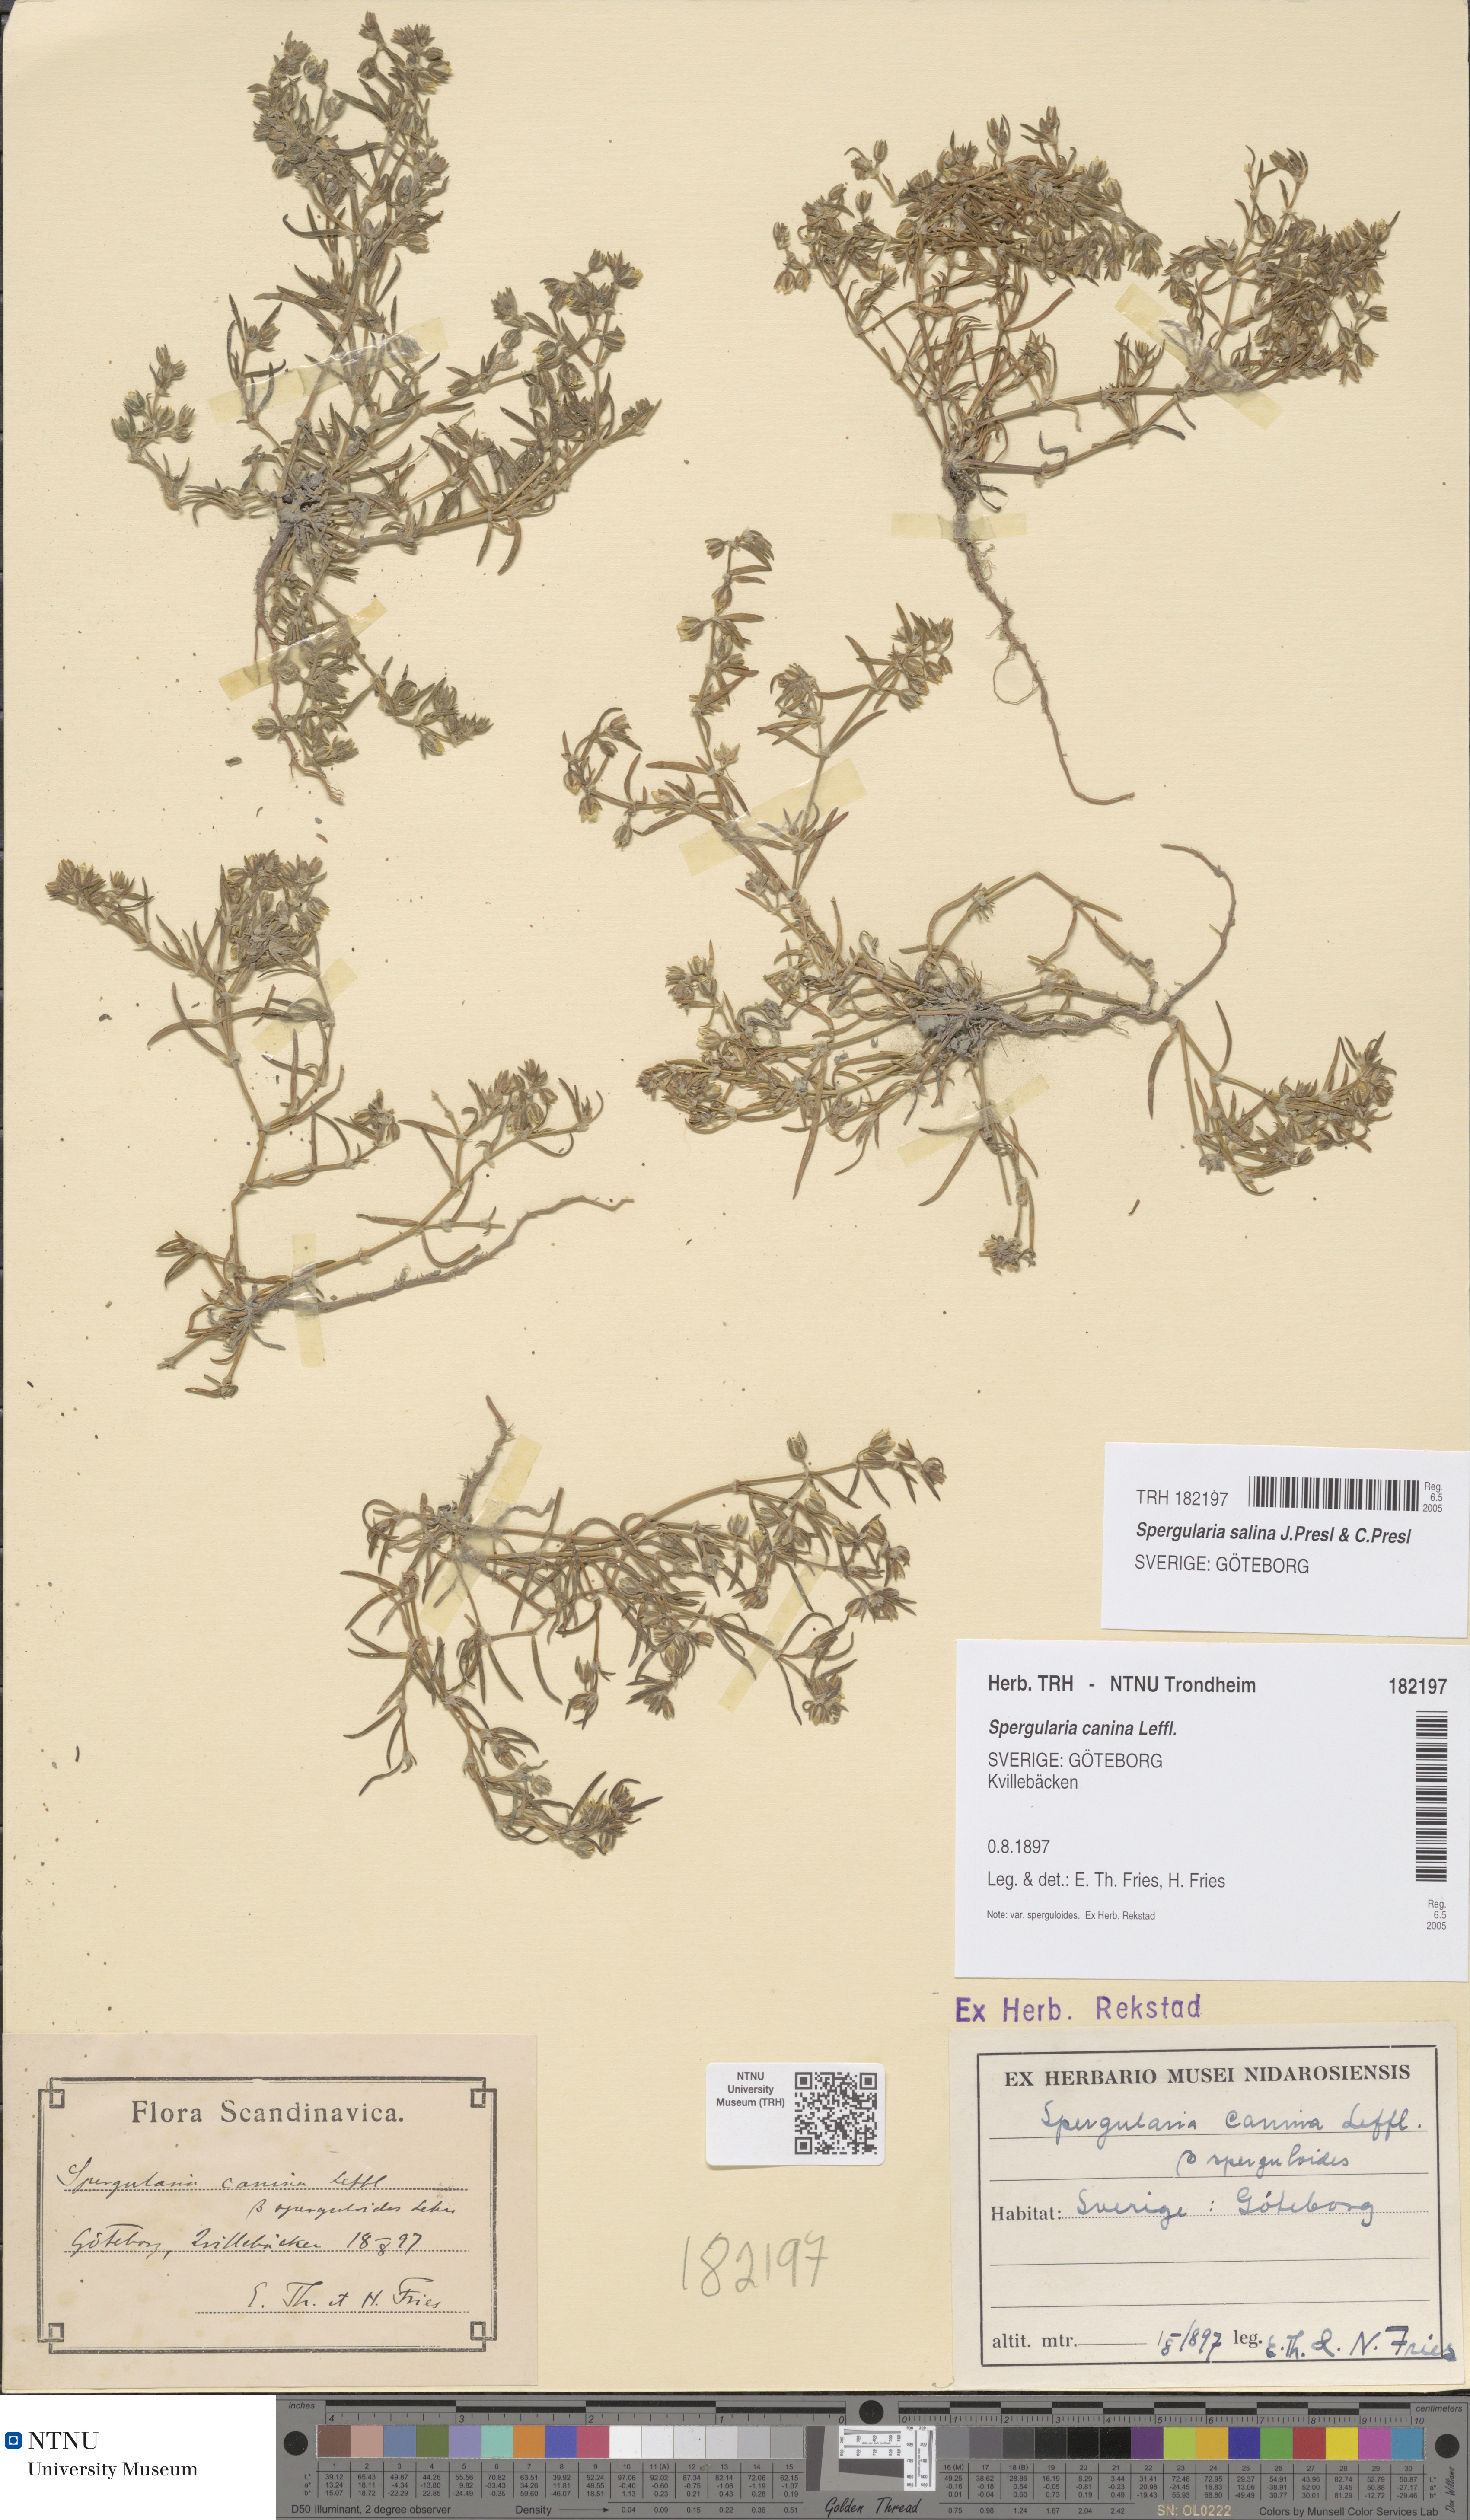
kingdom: Plantae
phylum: Tracheophyta
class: Magnoliopsida
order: Caryophyllales
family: Caryophyllaceae
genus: Spergularia
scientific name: Spergularia marina
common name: Lesser sea-spurrey
